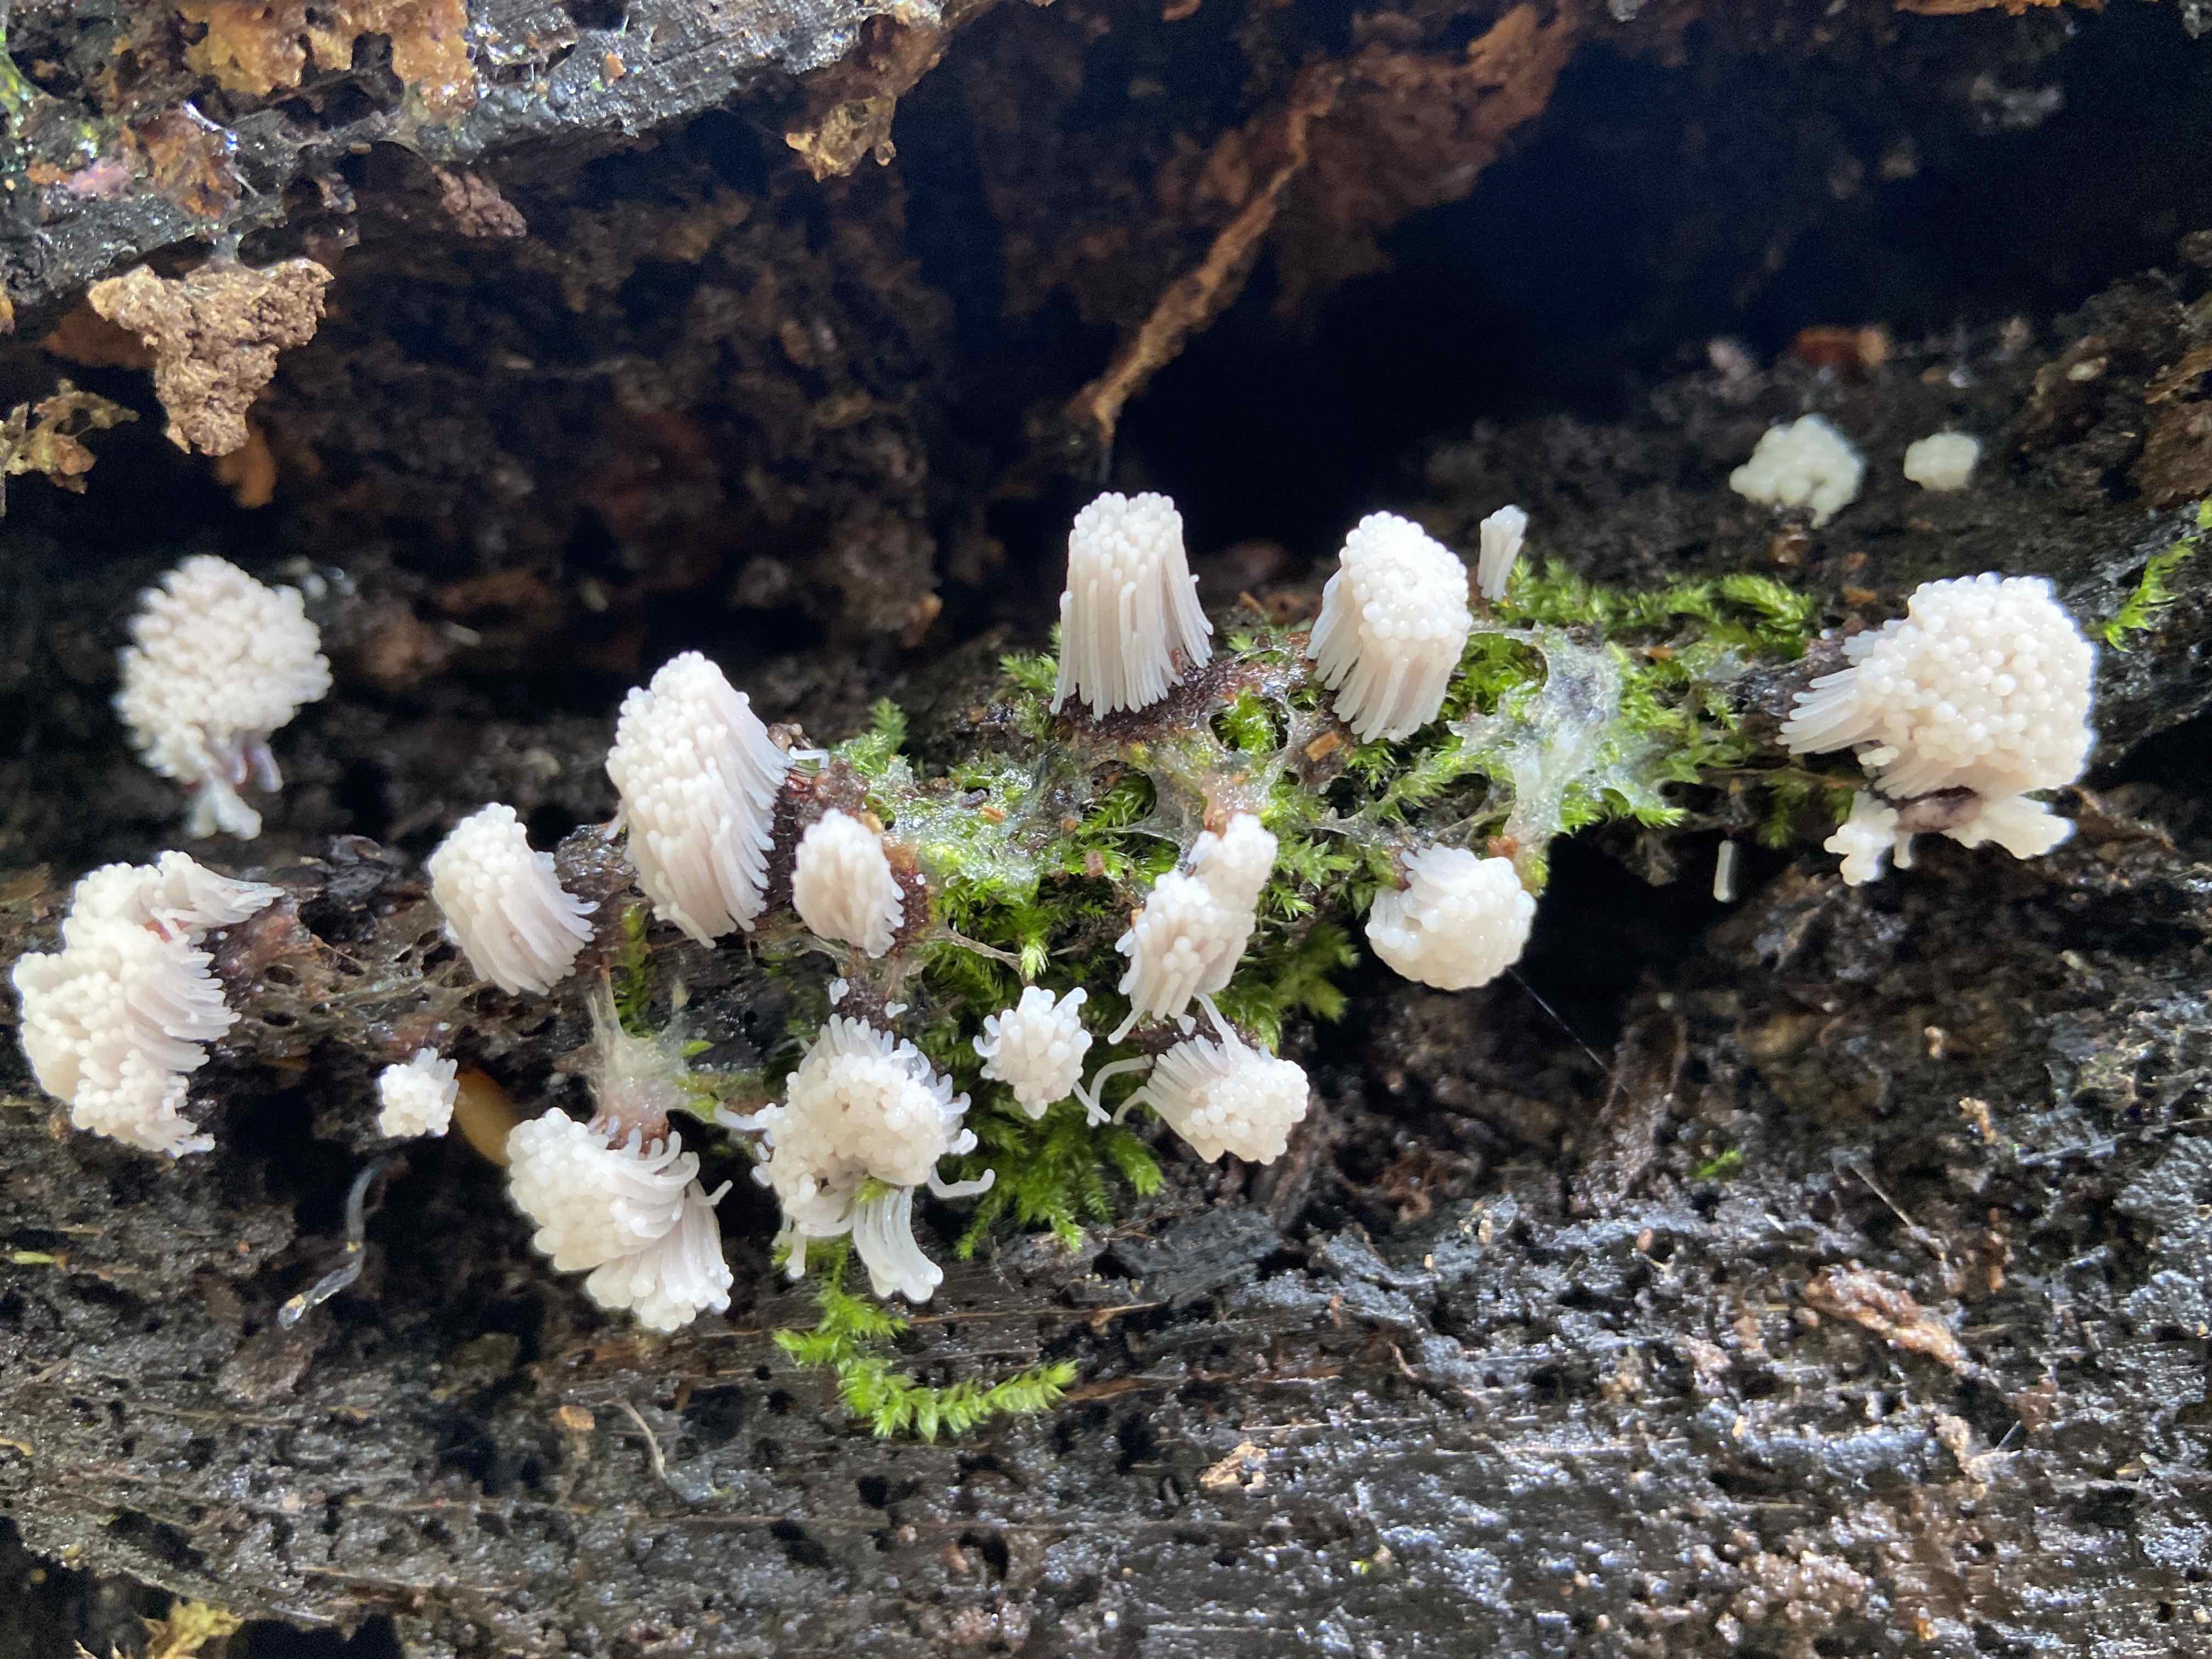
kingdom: Protozoa
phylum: Mycetozoa
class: Myxomycetes
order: Stemonitidales
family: Stemonitidaceae
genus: Stemonitis
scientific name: Stemonitis
